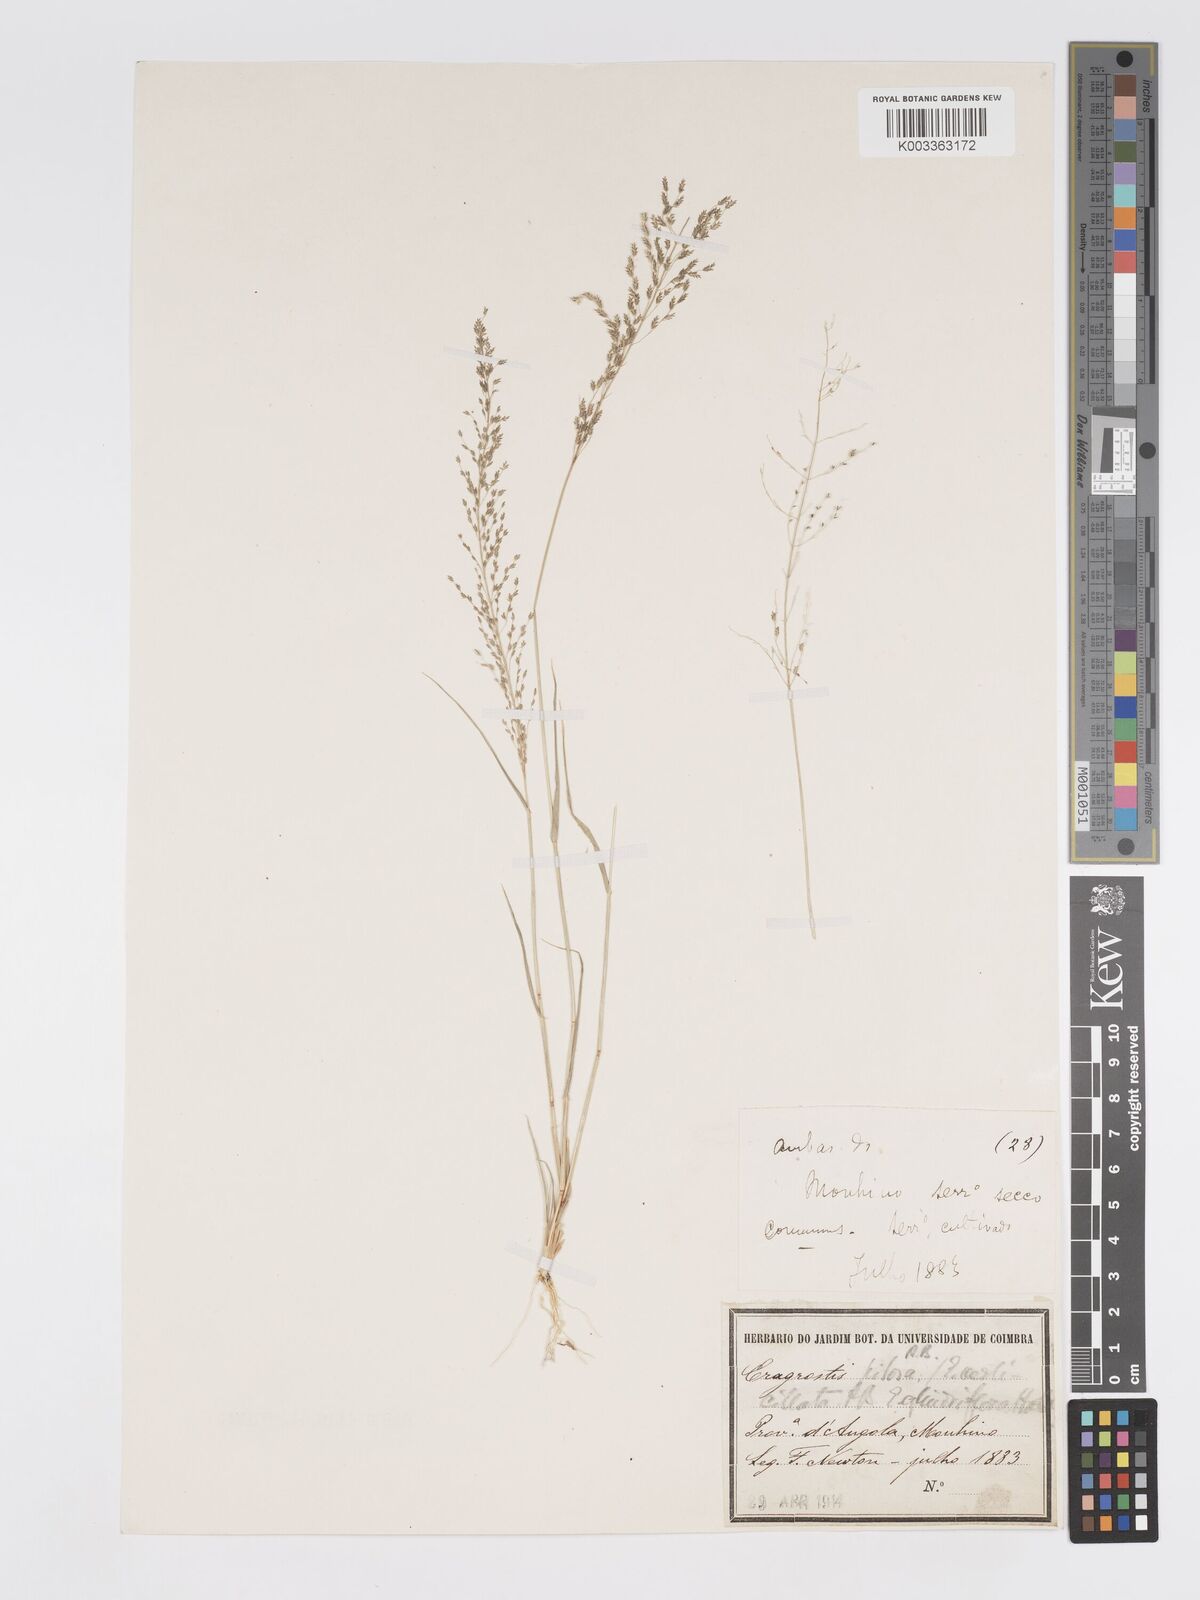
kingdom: Plantae
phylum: Tracheophyta
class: Liliopsida
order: Poales
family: Poaceae
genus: Eragrostis
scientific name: Eragrostis cylindriflora
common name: Cylinderflower lovegrass
